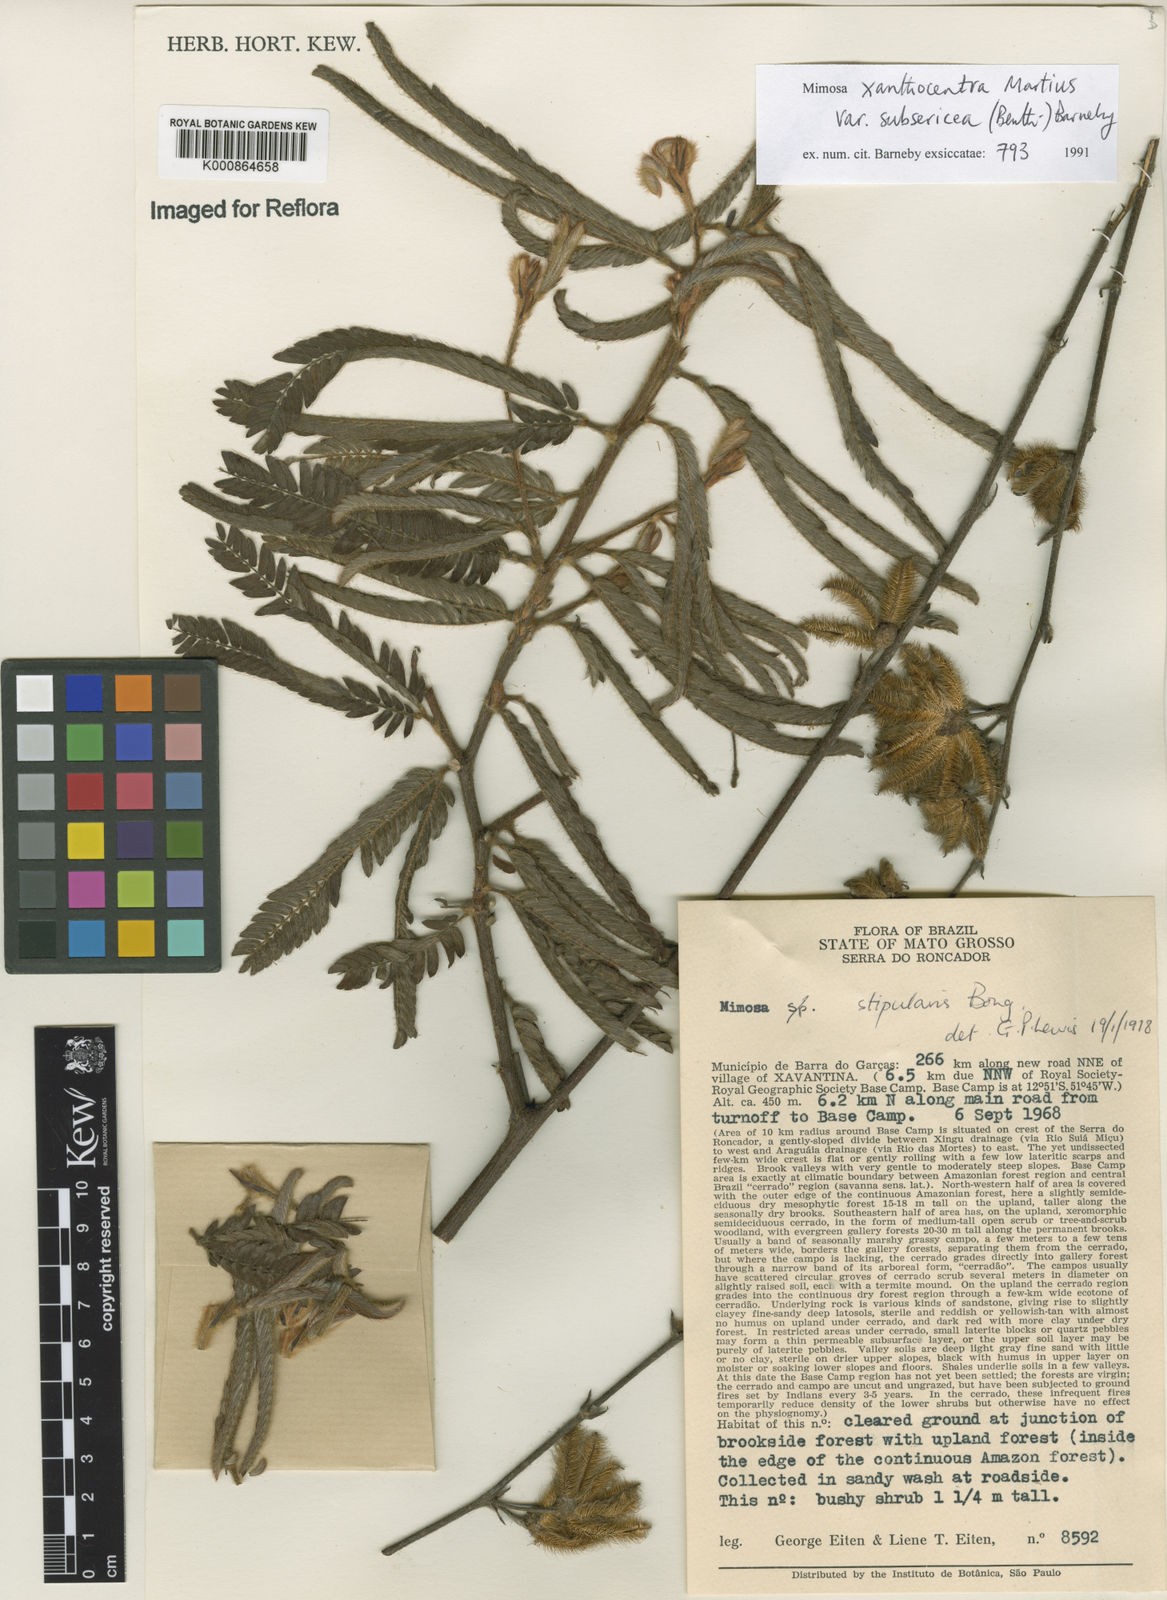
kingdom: Plantae
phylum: Tracheophyta
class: Magnoliopsida
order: Fabales
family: Fabaceae
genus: Mimosa
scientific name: Mimosa xanthocentra
